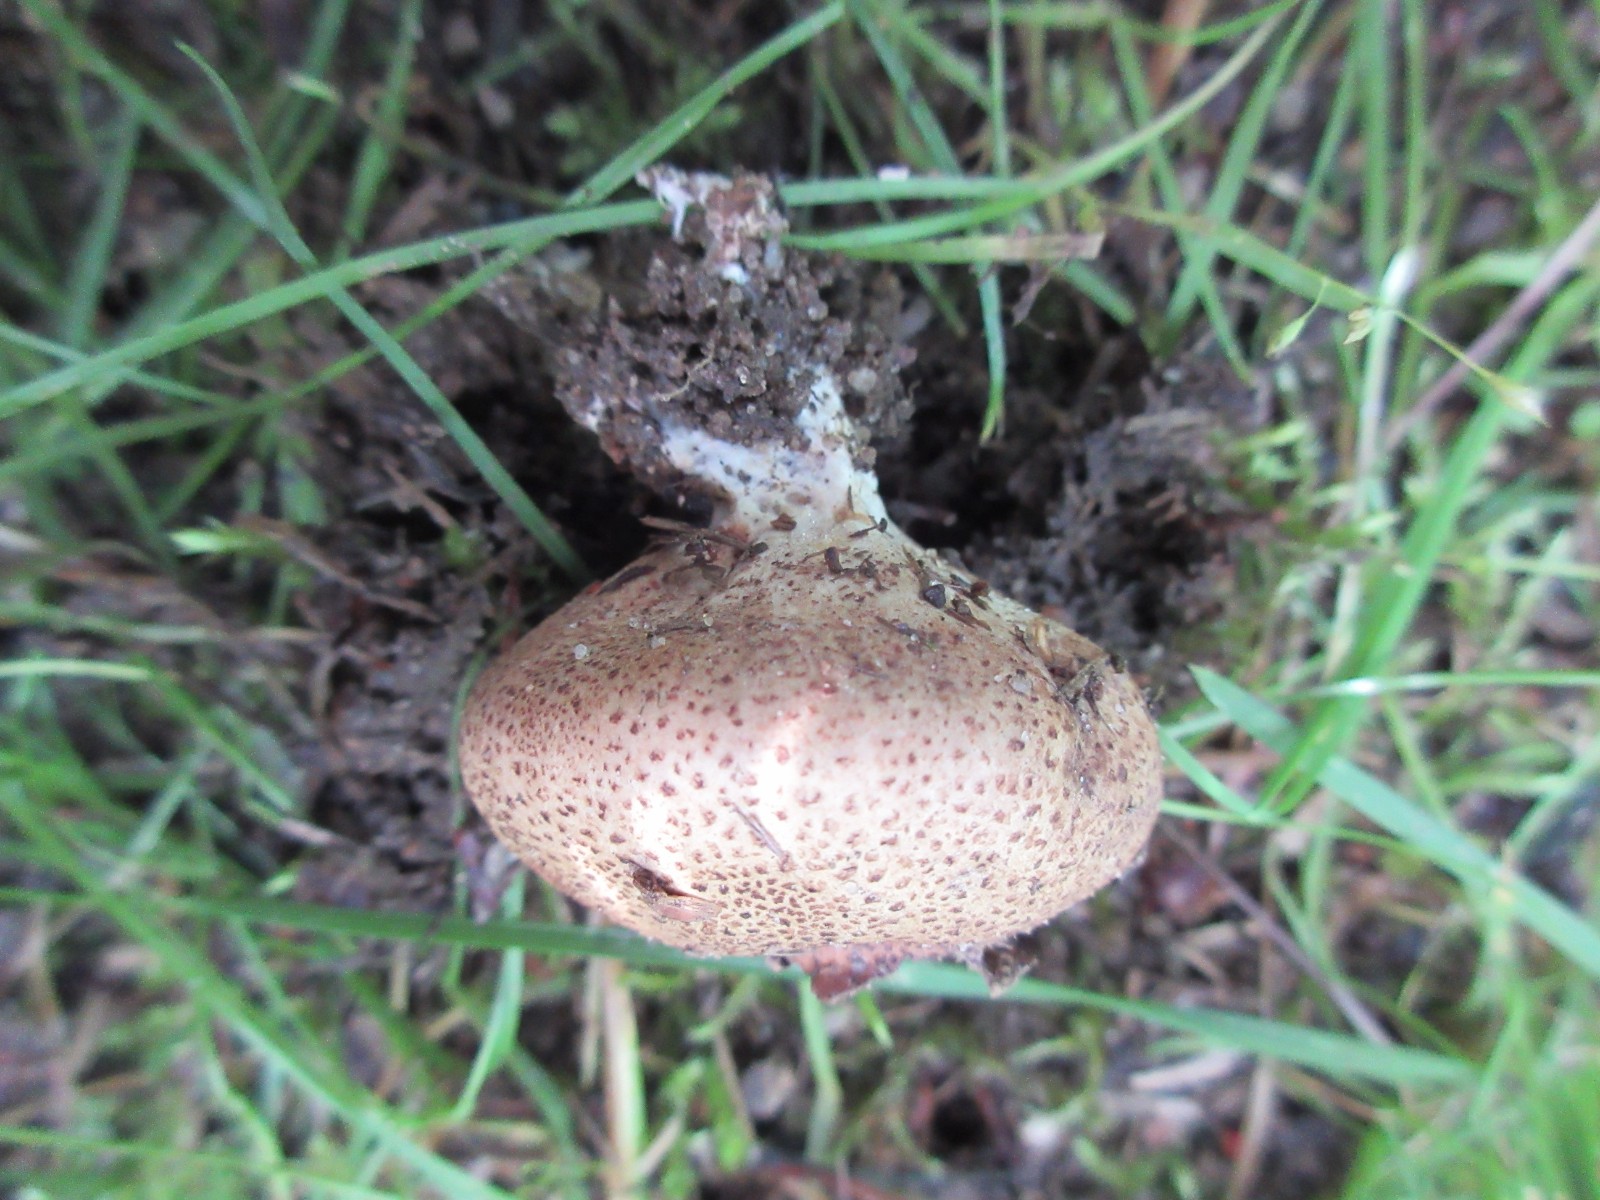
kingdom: Fungi
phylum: Basidiomycota
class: Agaricomycetes
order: Boletales
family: Sclerodermataceae
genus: Scleroderma
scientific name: Scleroderma areolatum
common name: plettet bruskbold
